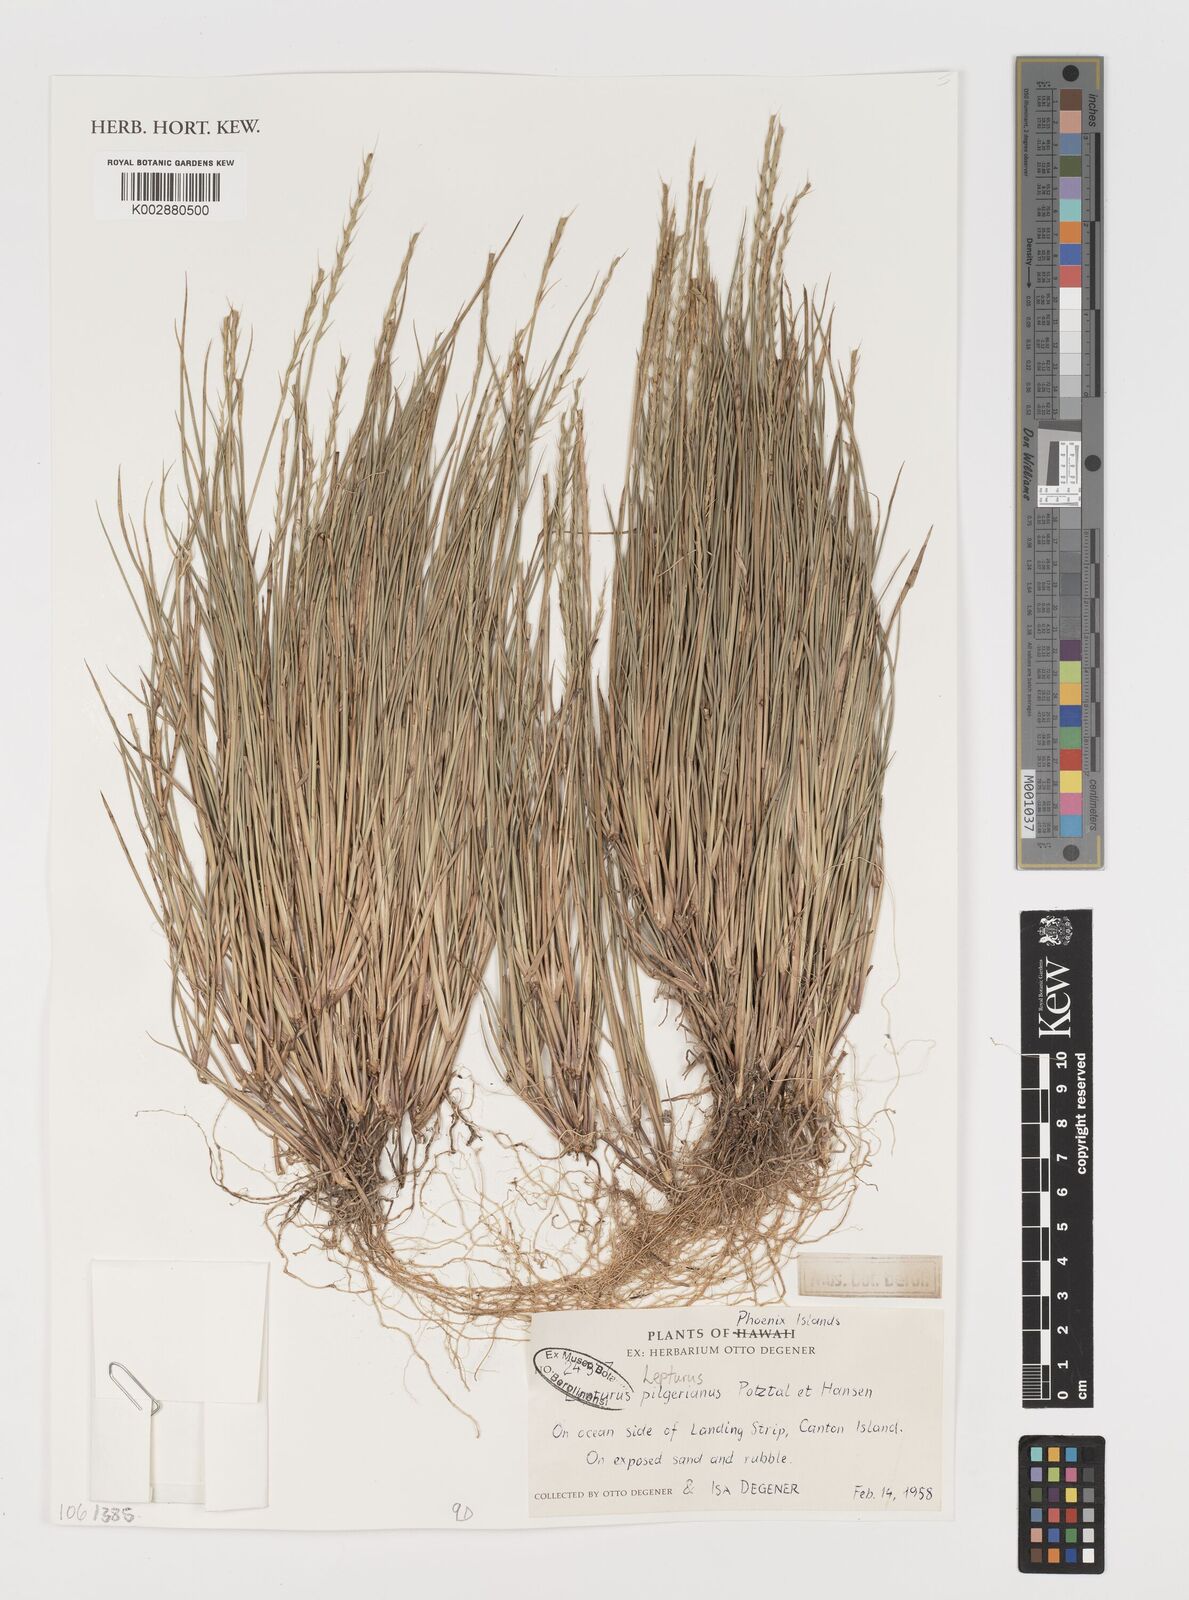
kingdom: Plantae
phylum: Tracheophyta
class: Liliopsida
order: Poales
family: Poaceae
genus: Lepturus
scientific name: Lepturus repens
